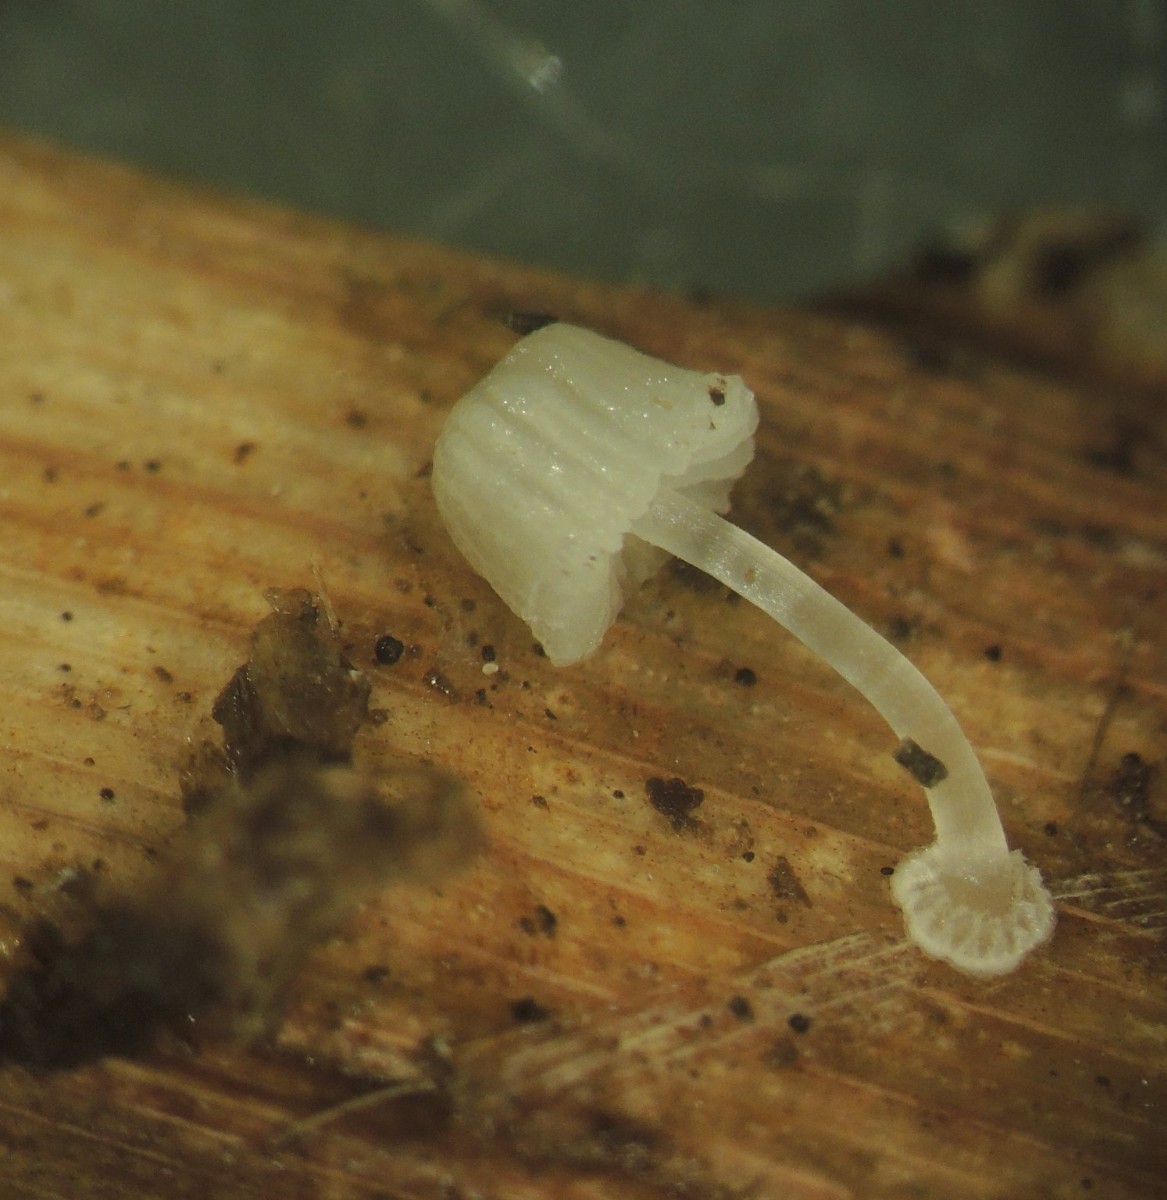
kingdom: Fungi
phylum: Basidiomycota
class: Agaricomycetes
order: Agaricales
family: Mycenaceae
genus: Mycena
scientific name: Mycena bulbosa
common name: siv-huesvamp
